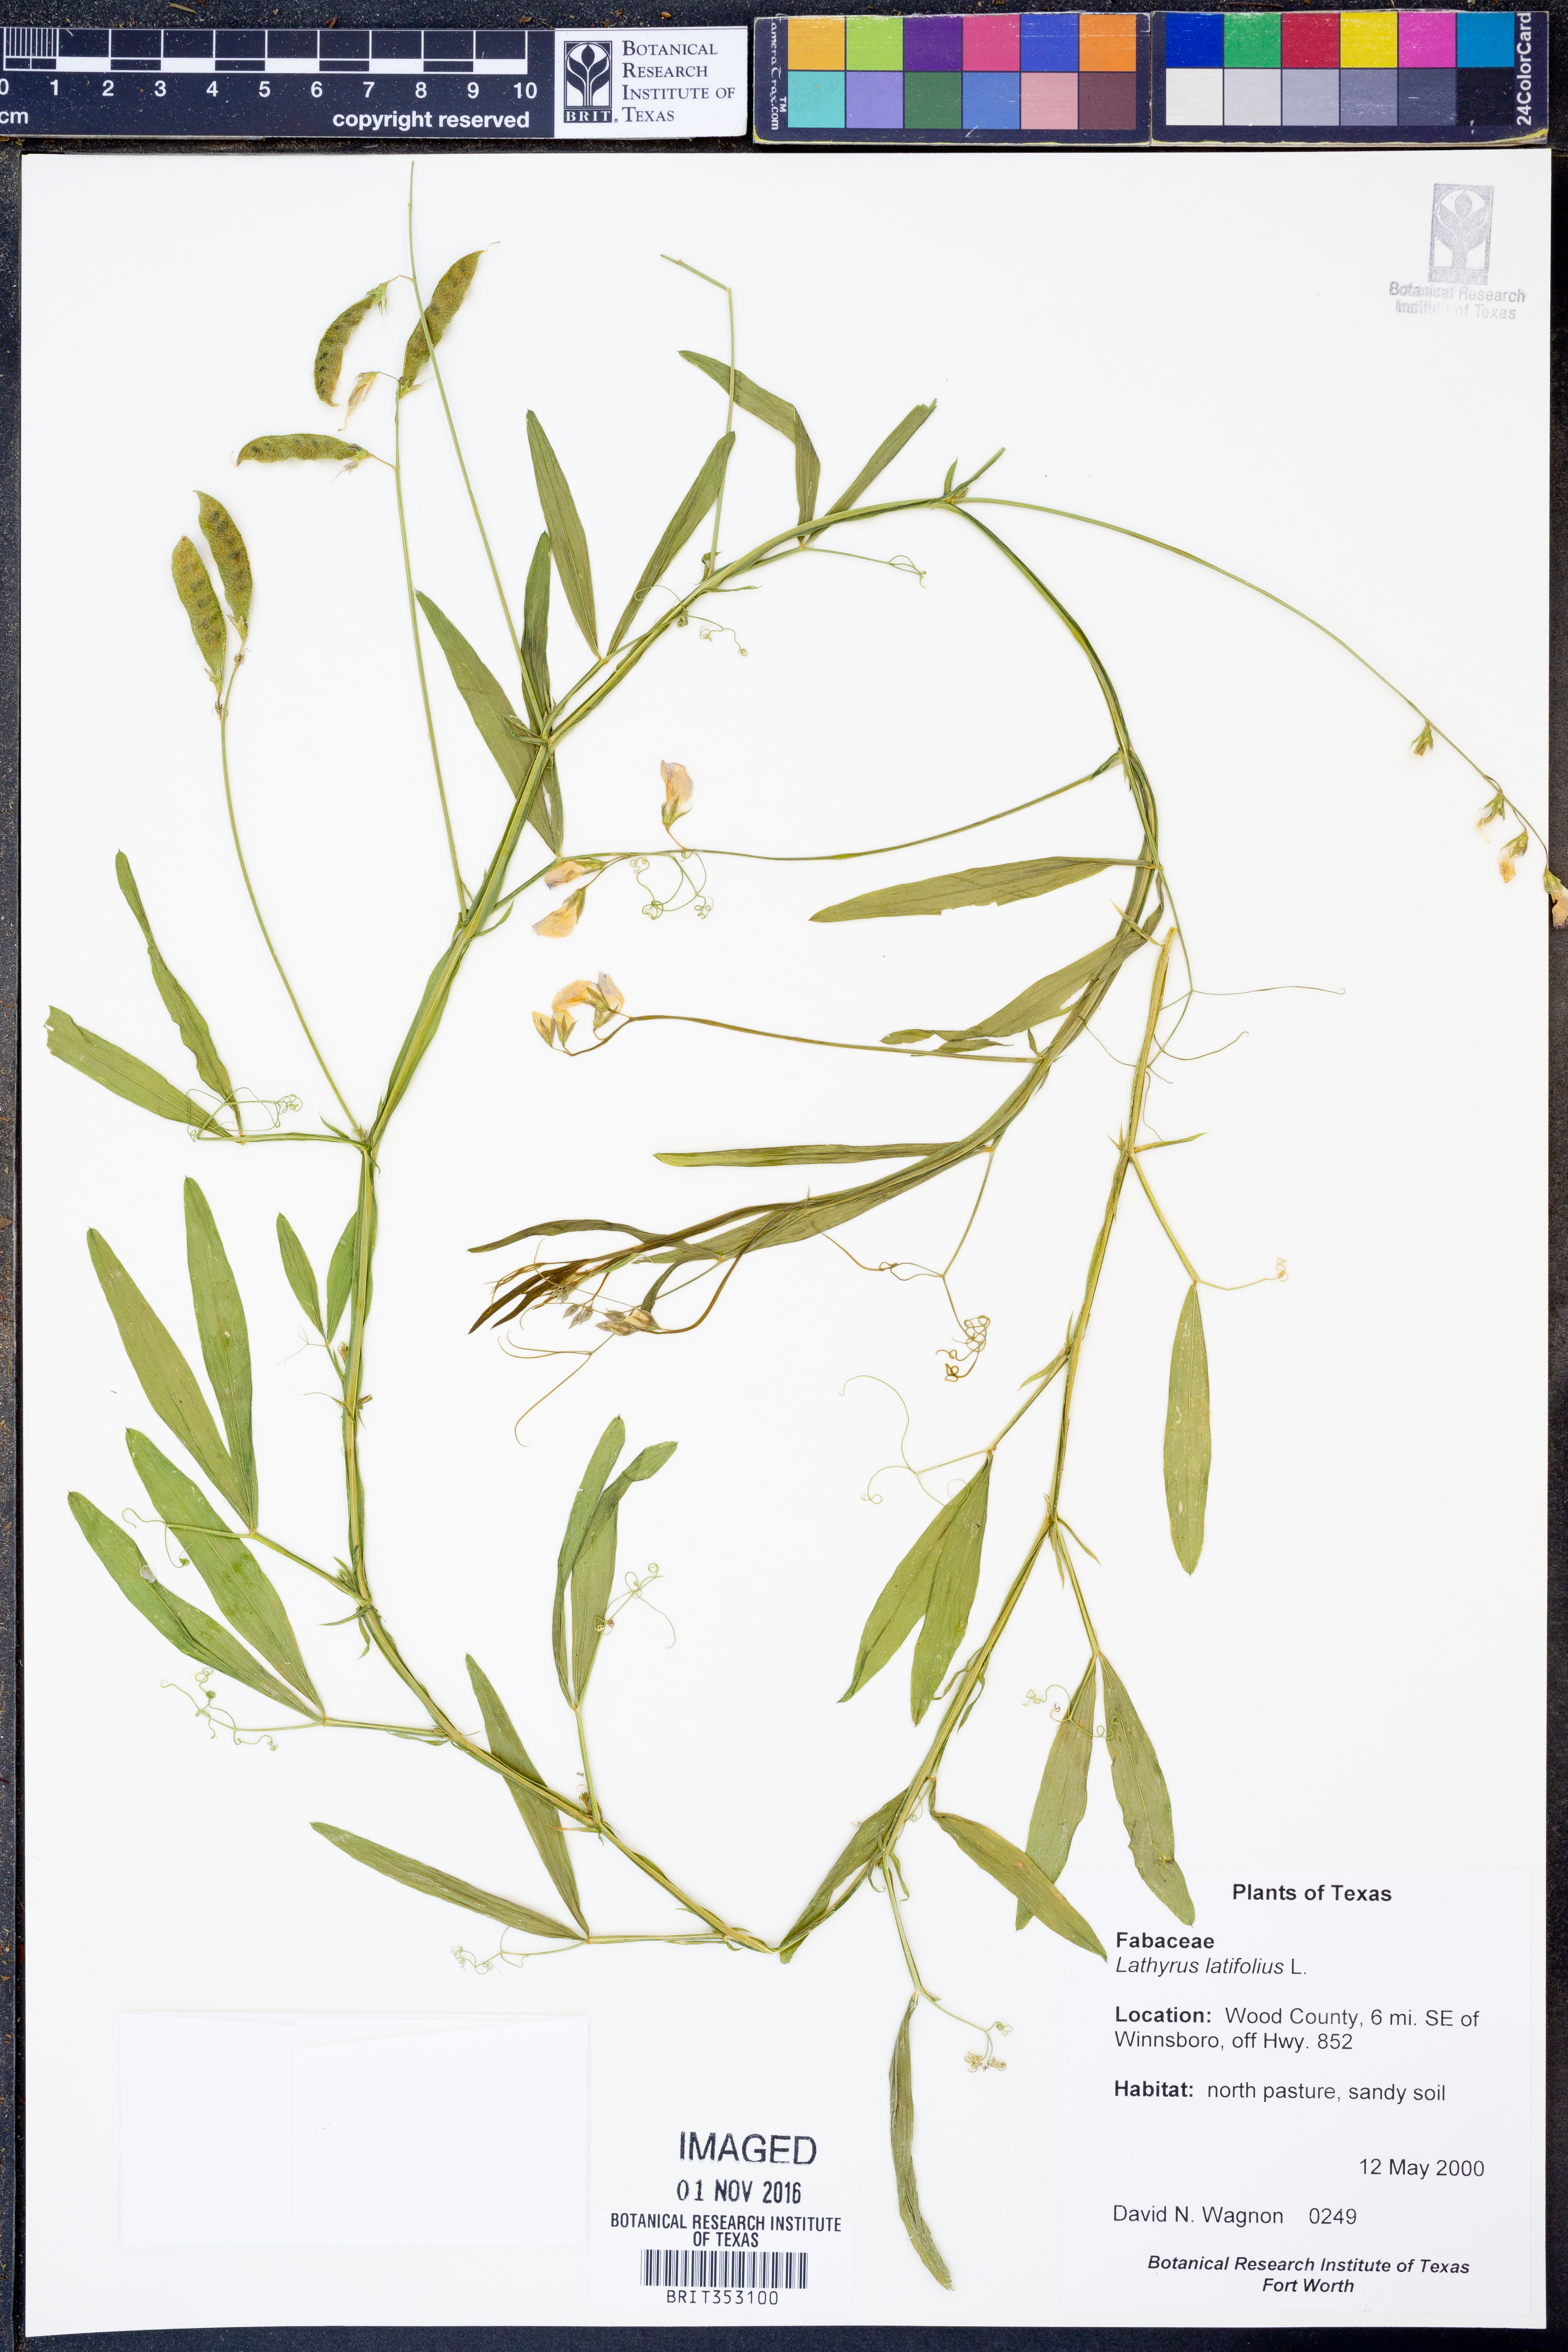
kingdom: Plantae
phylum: Tracheophyta
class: Magnoliopsida
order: Fabales
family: Fabaceae
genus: Lathyrus
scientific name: Lathyrus latifolius
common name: Perennial pea
